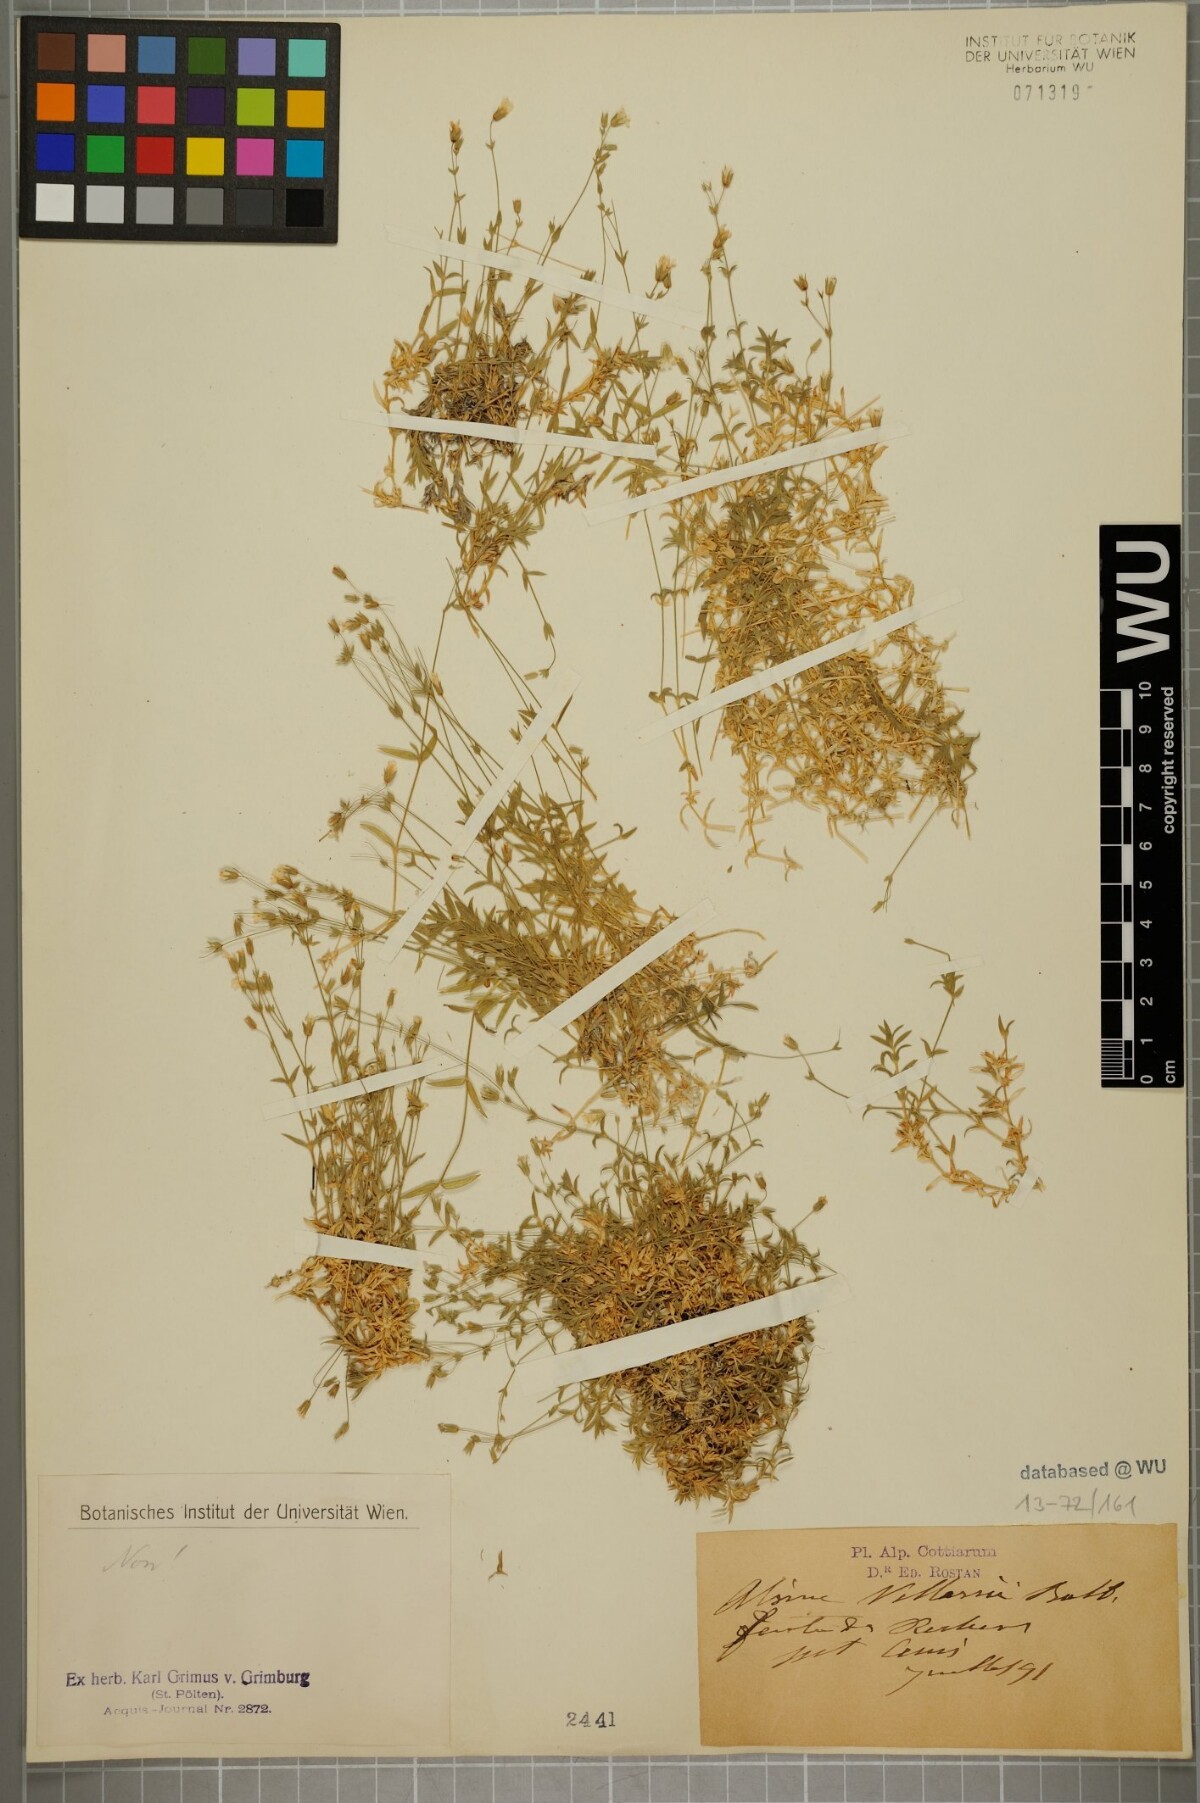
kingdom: Plantae
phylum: Tracheophyta
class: Magnoliopsida
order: Caryophyllales
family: Caryophyllaceae
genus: Facchinia
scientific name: Facchinia villarsii
